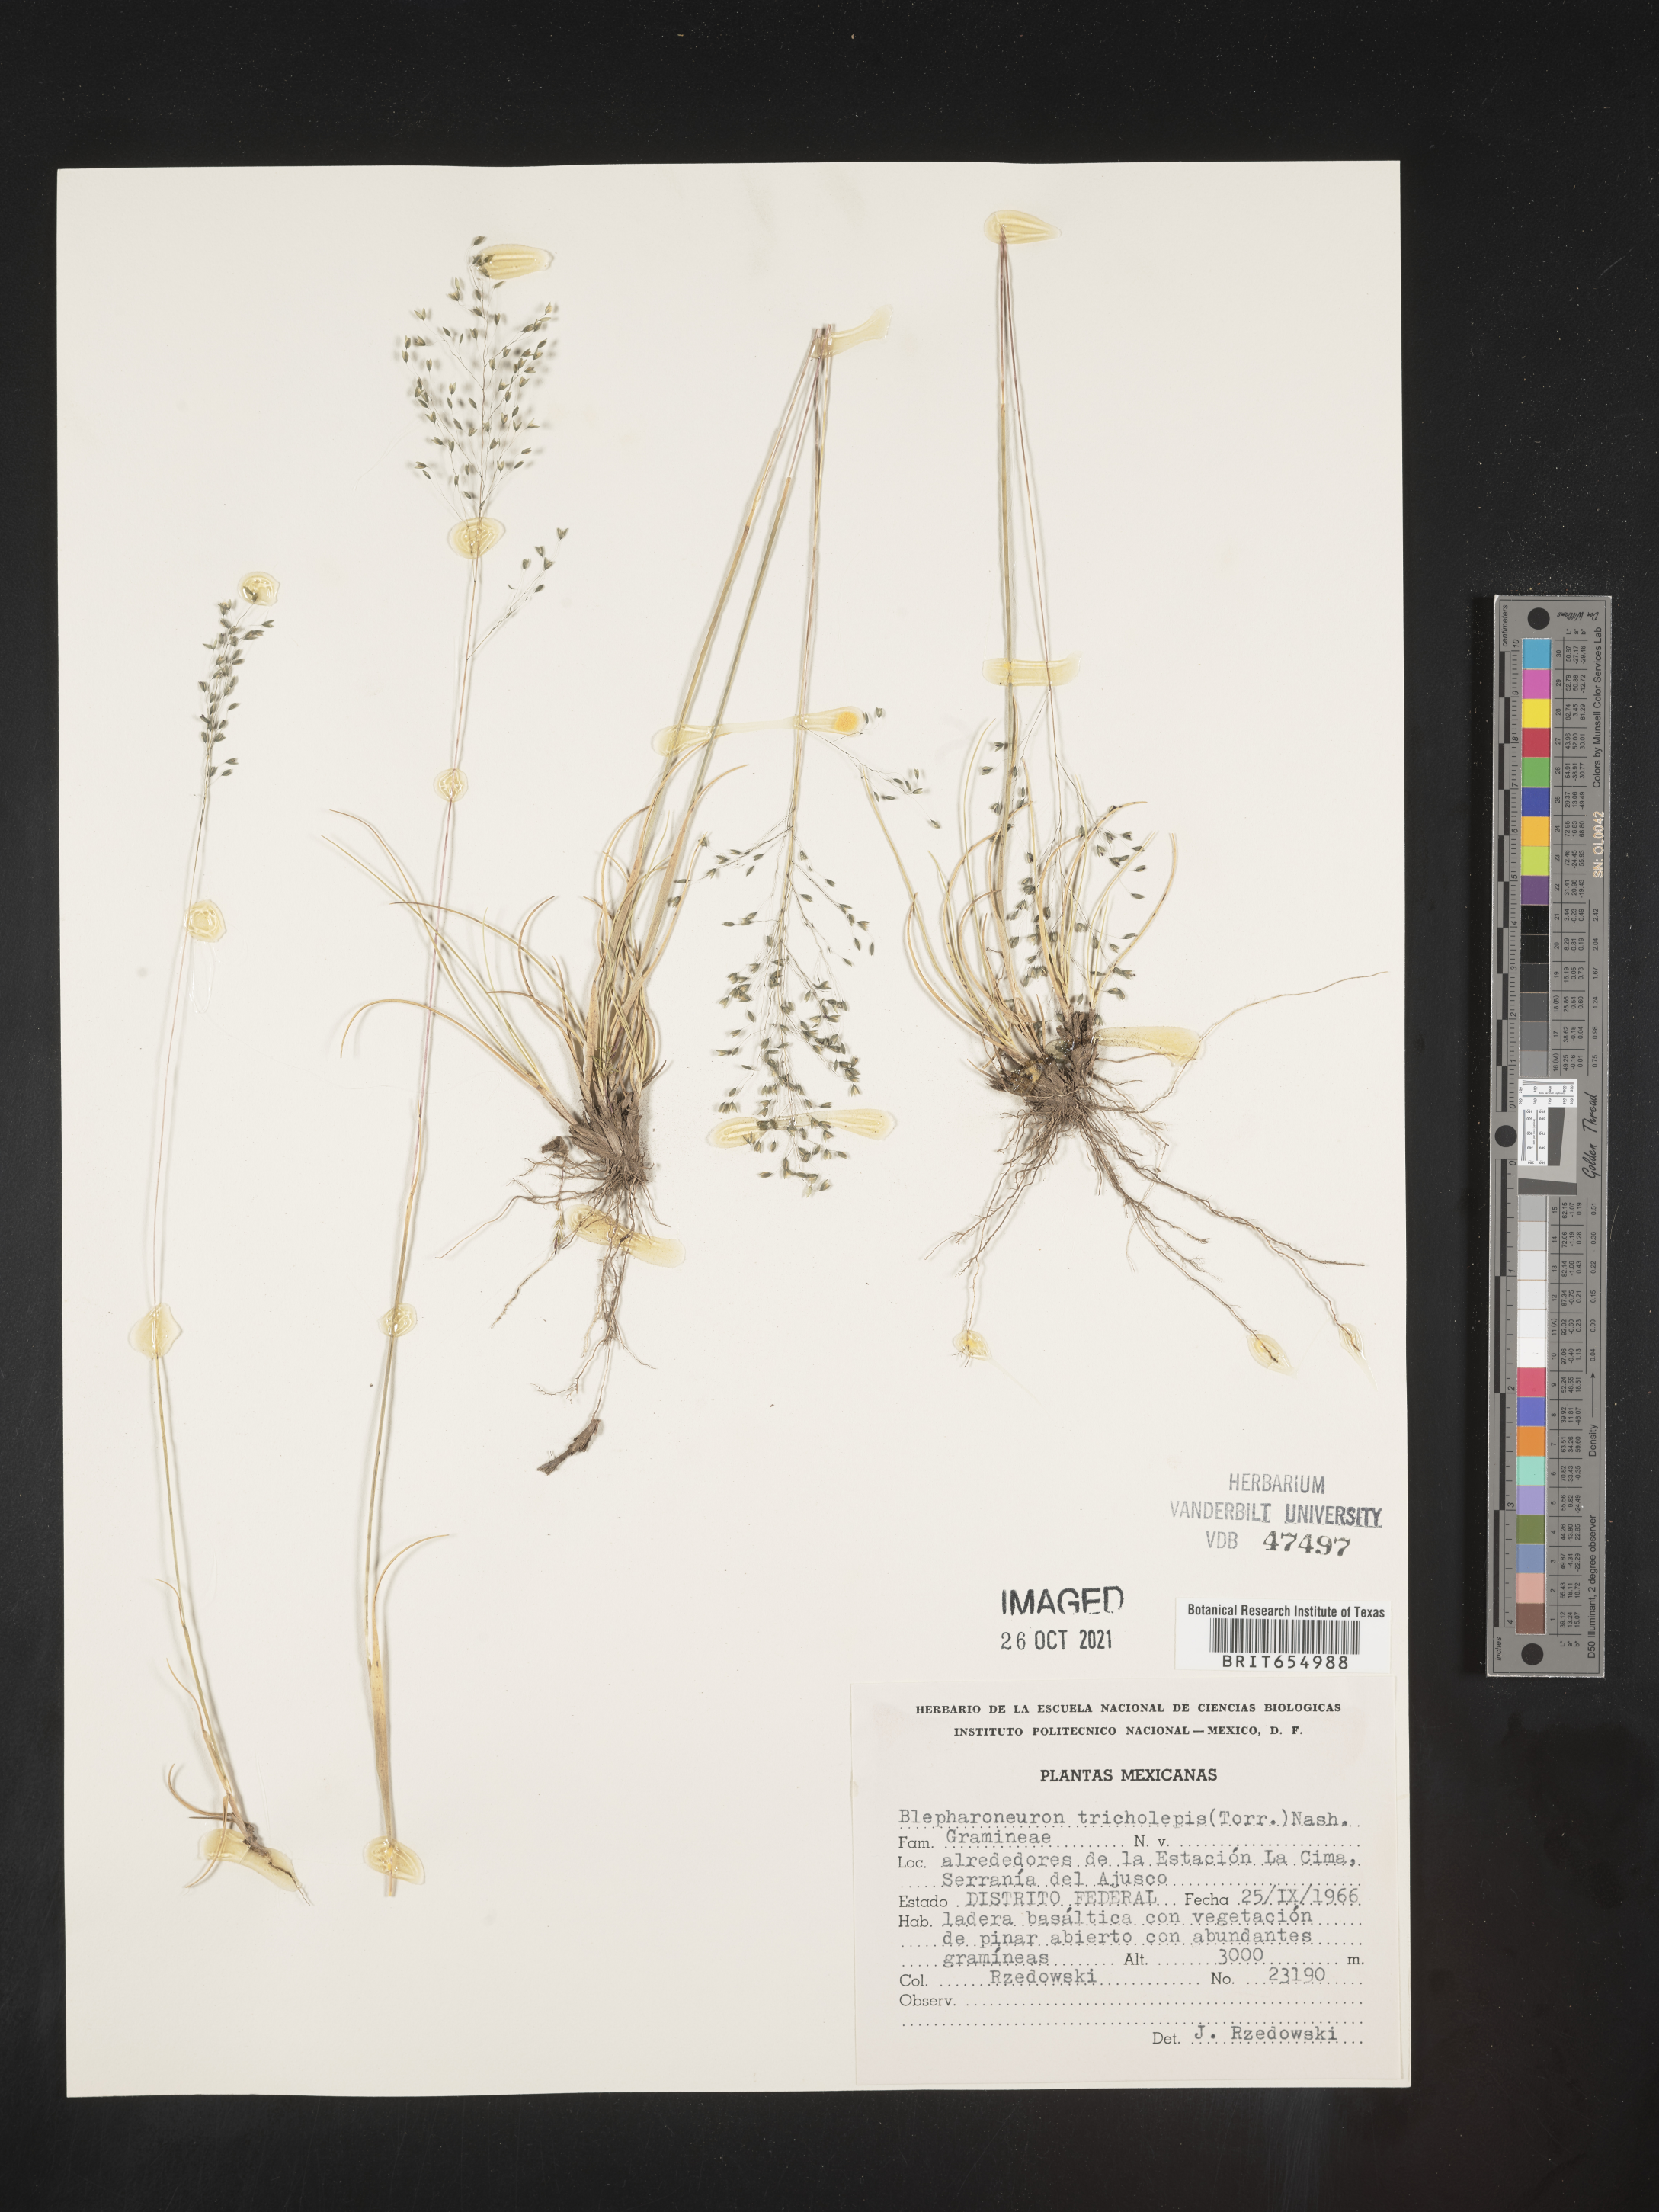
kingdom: Plantae
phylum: Tracheophyta
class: Liliopsida
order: Poales
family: Poaceae
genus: Blepharoneuron
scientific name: Blepharoneuron
